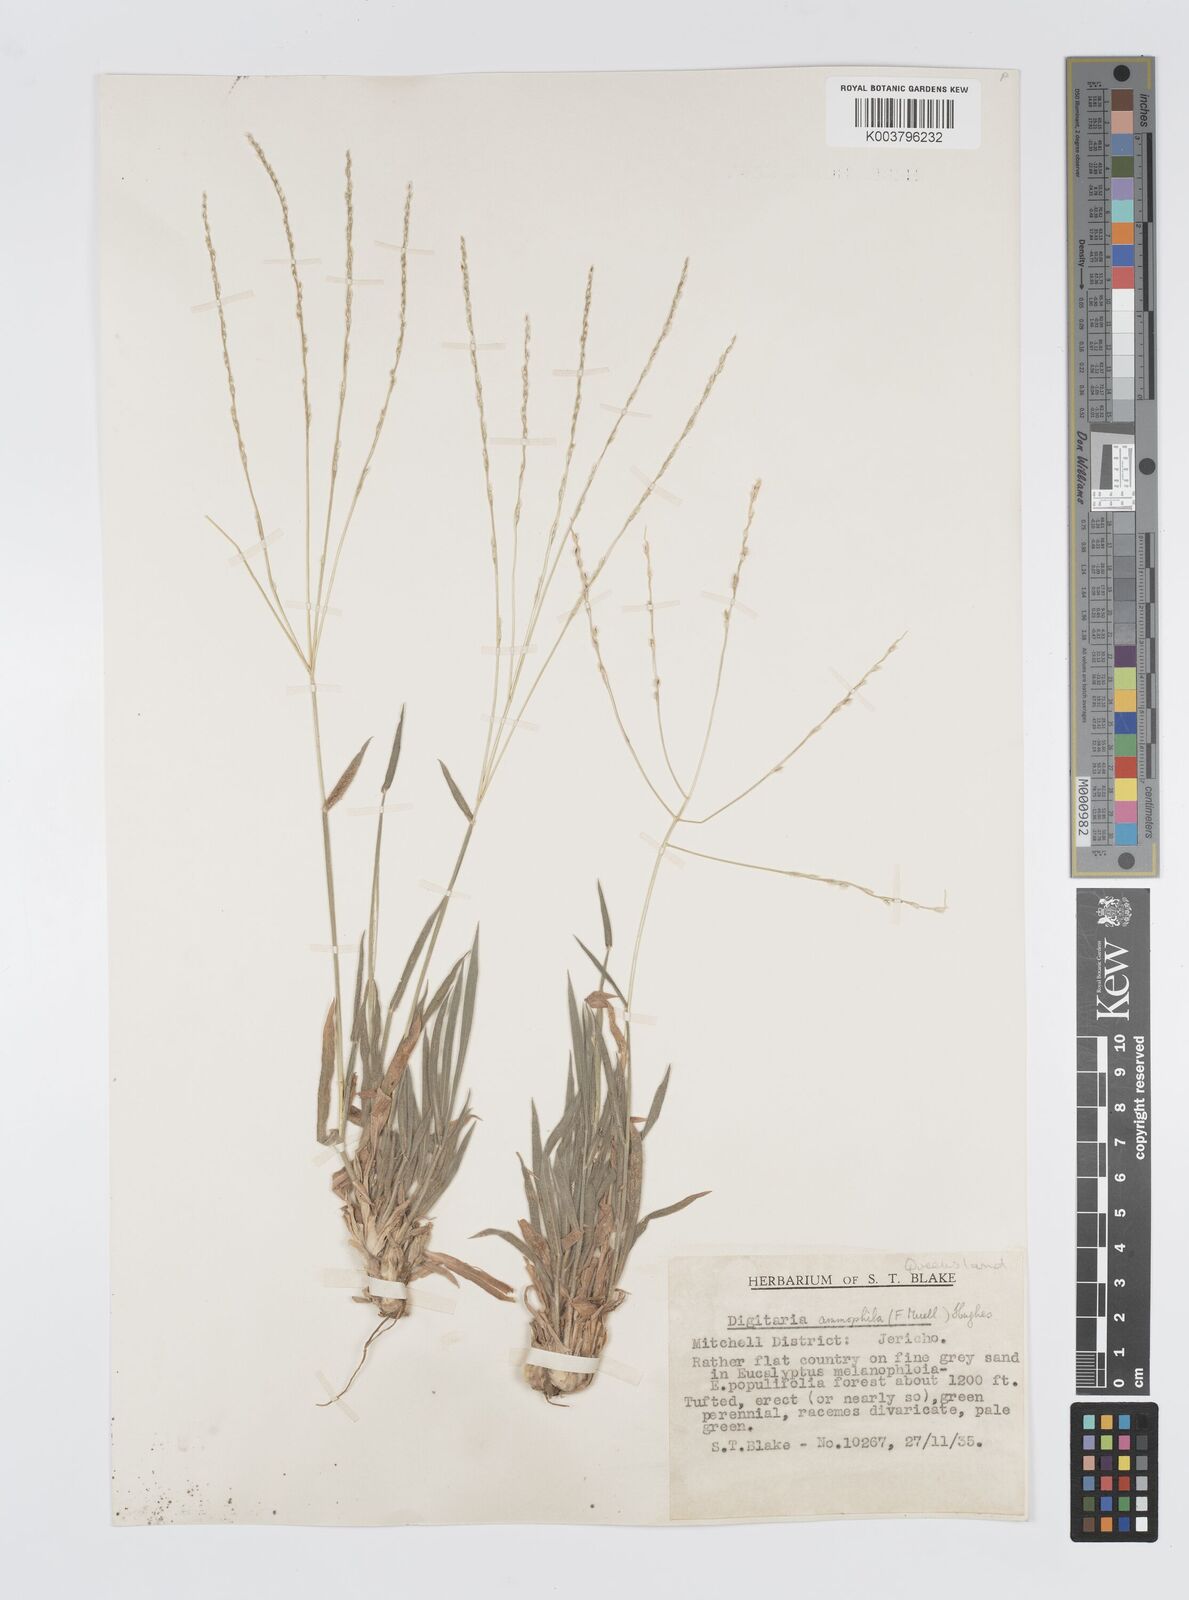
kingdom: Plantae
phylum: Tracheophyta
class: Liliopsida
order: Poales
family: Poaceae
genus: Digitaria
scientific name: Digitaria ammophila
